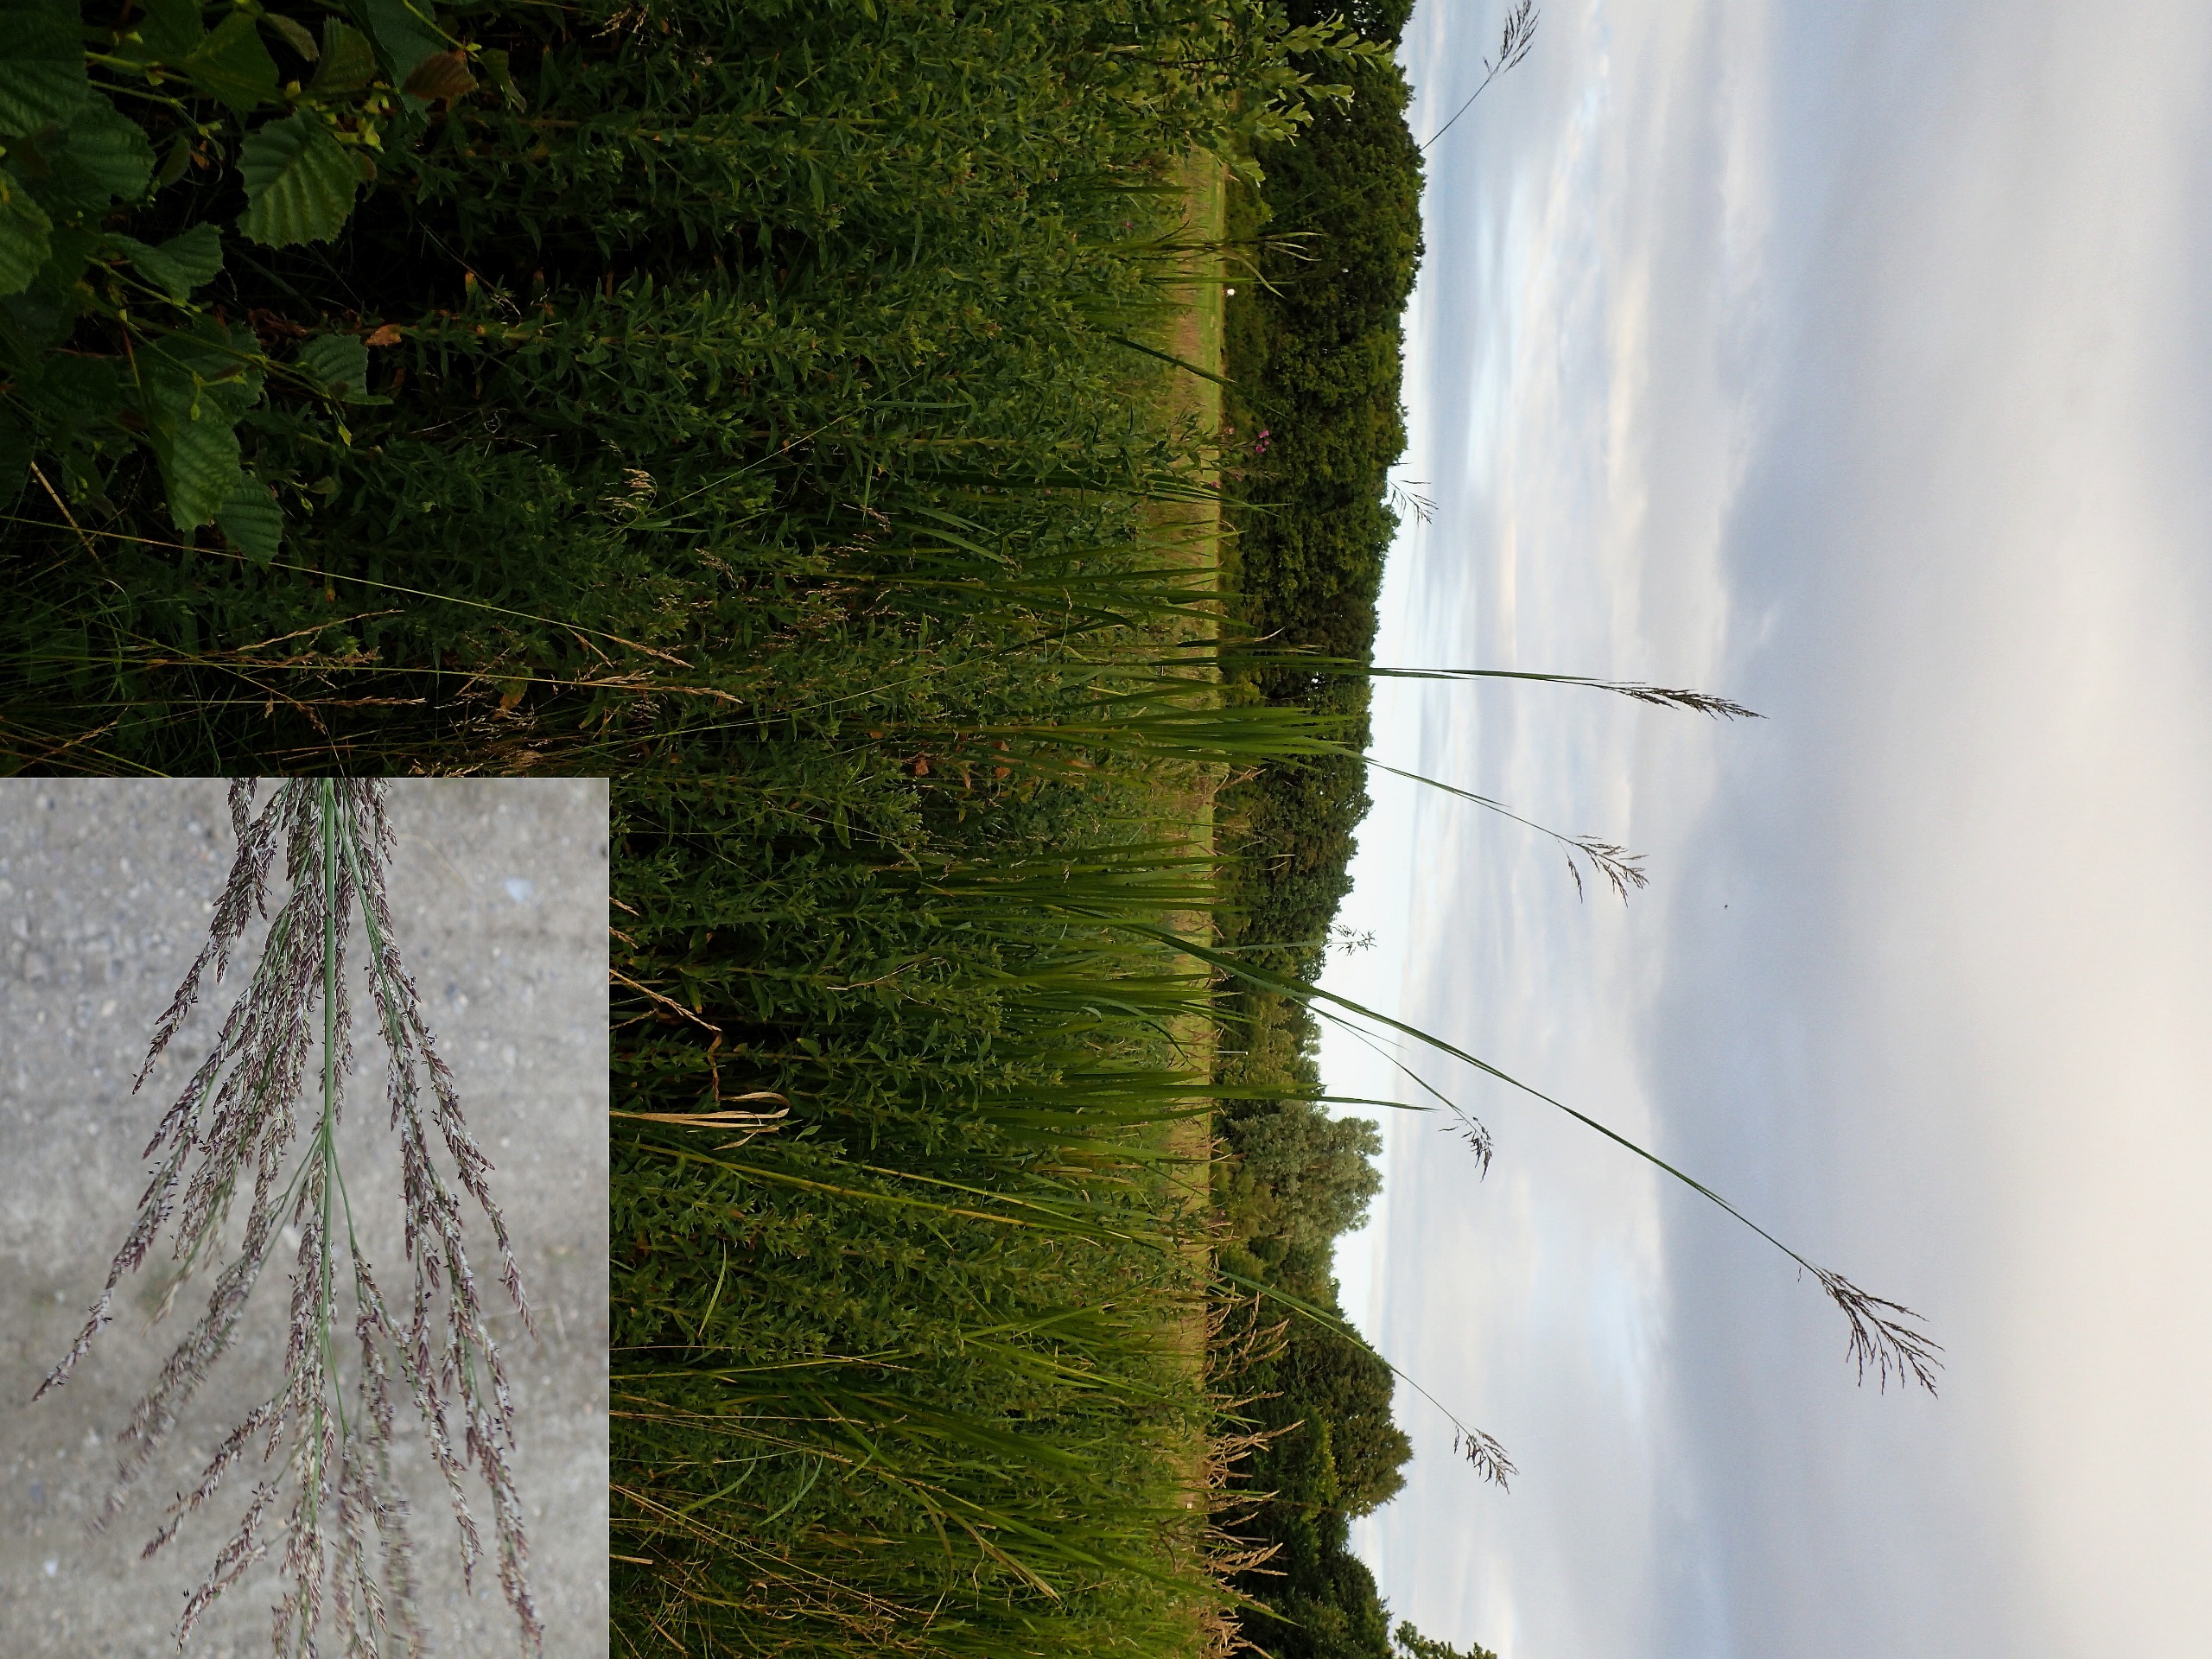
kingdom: Plantae
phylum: Tracheophyta
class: Liliopsida
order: Poales
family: Poaceae
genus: Glyceria
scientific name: Glyceria maxima
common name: Høj sødgræs
